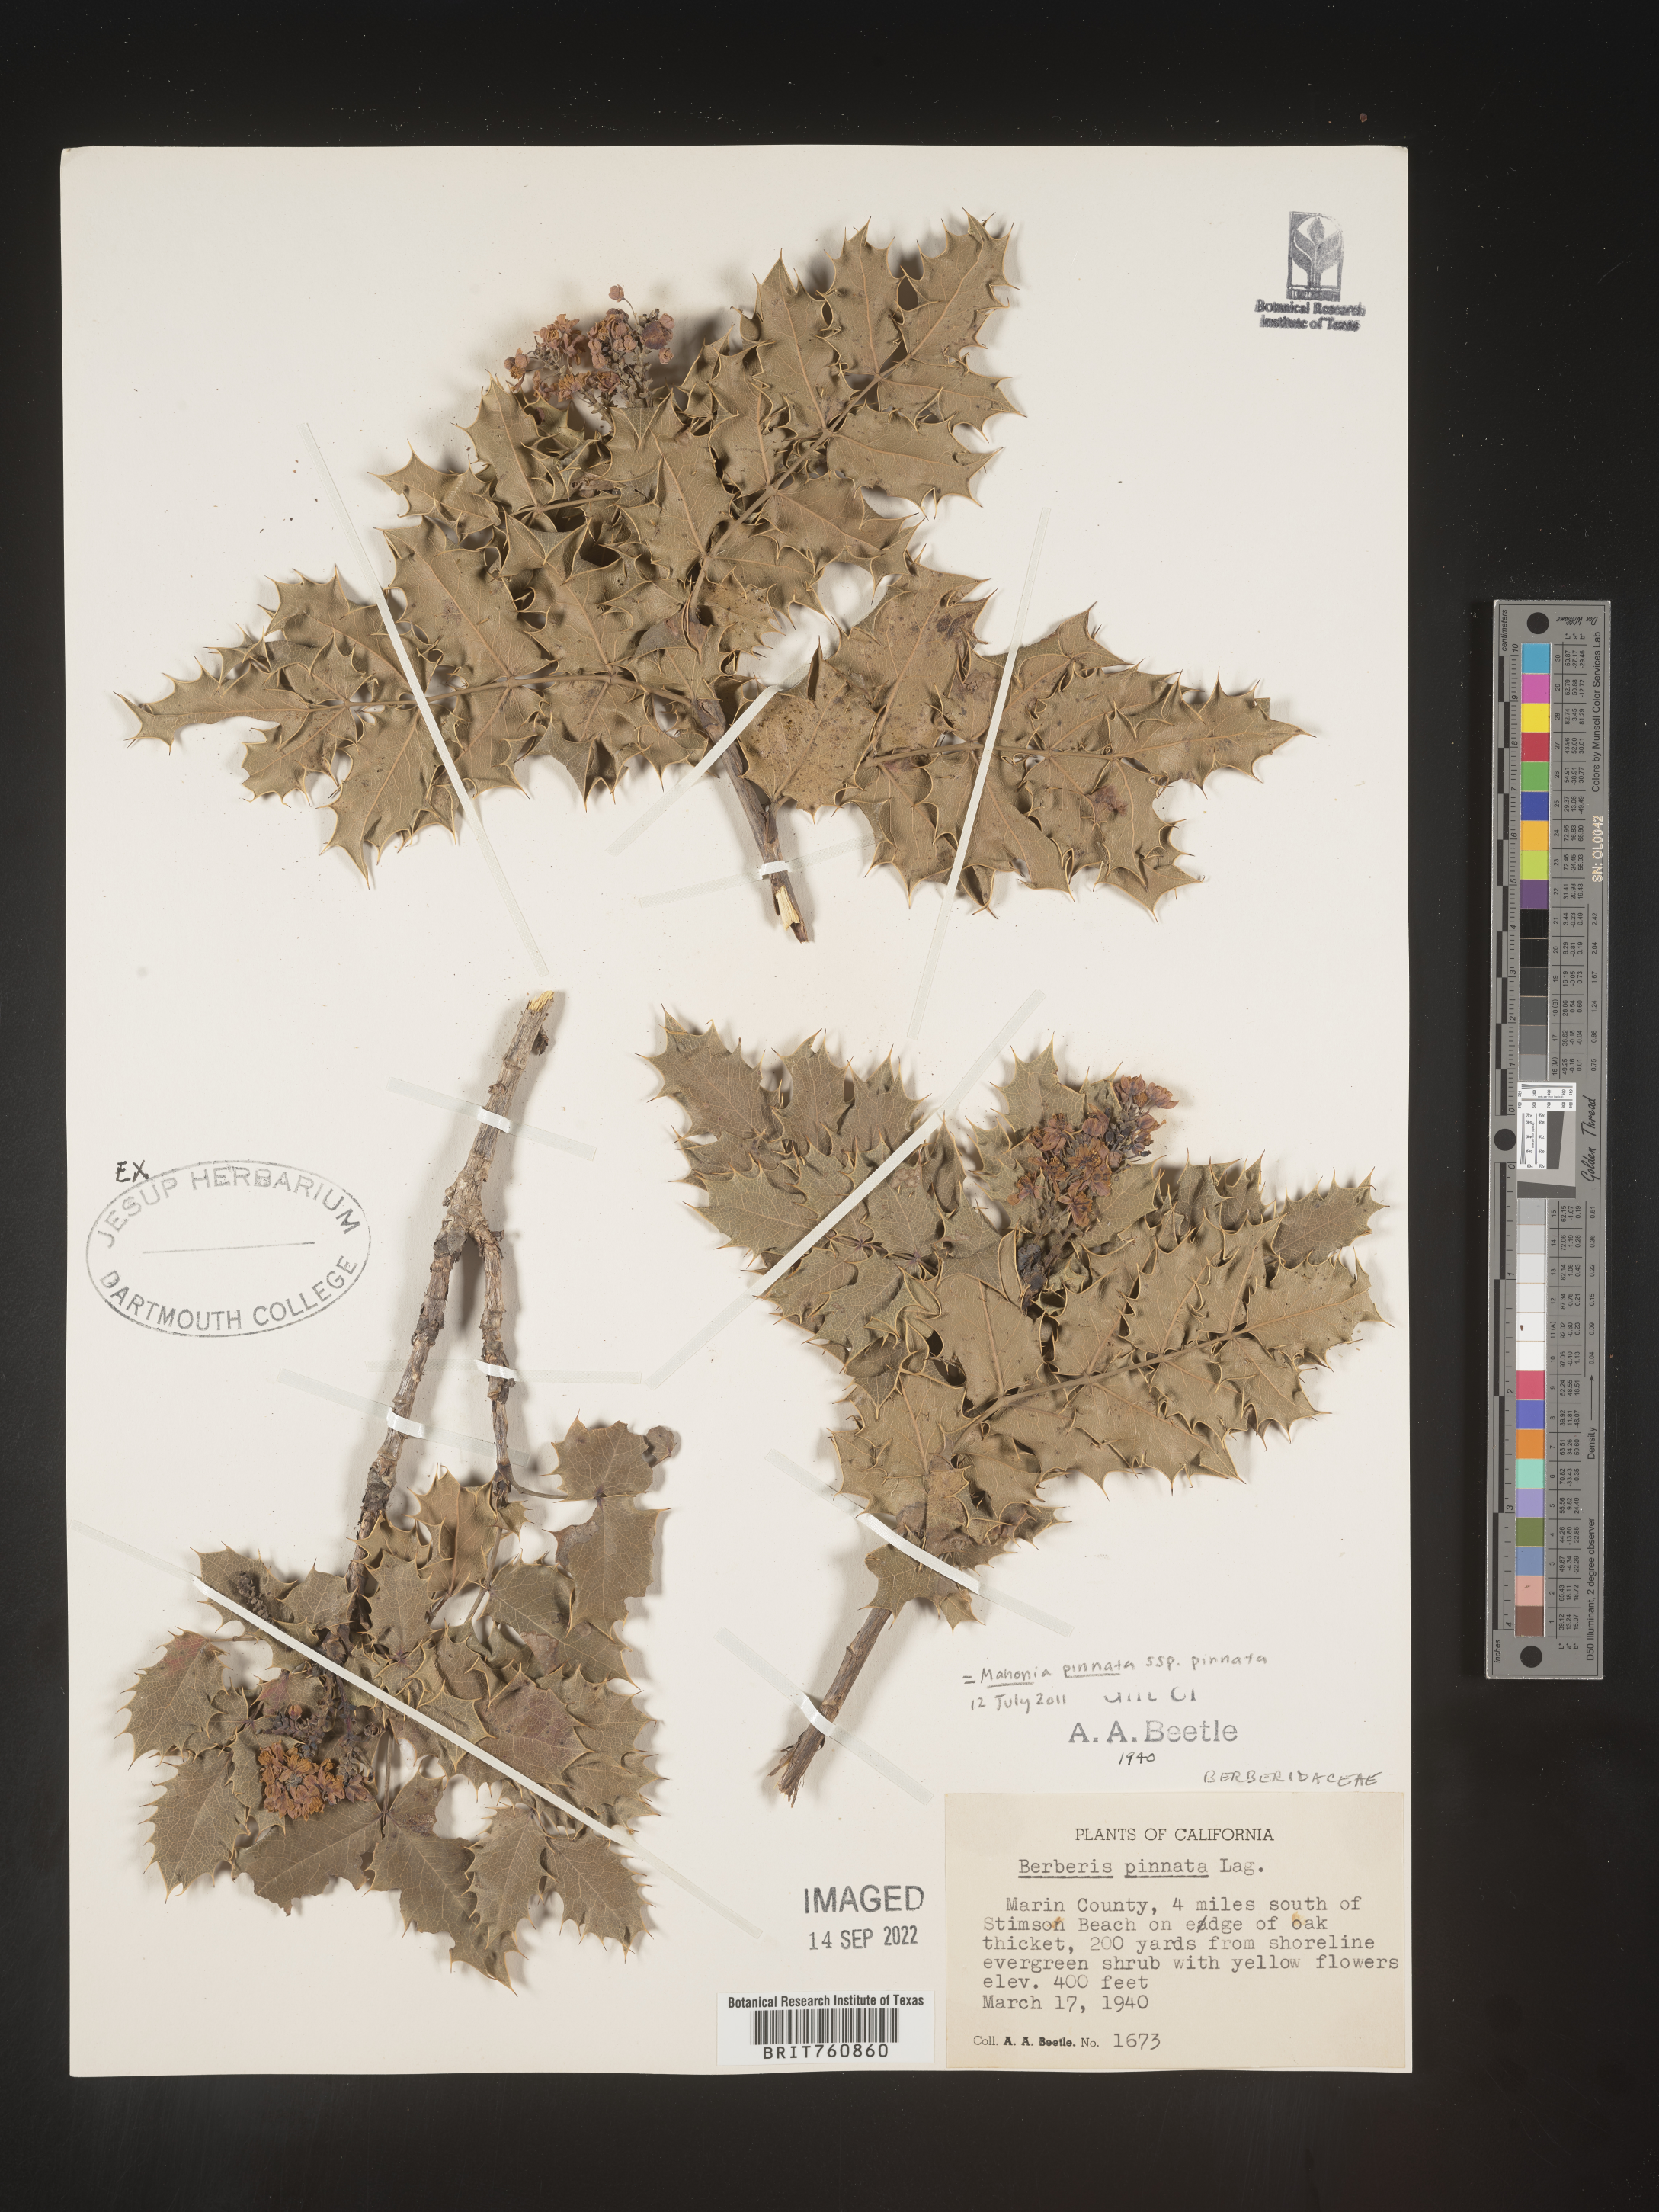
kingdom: Plantae
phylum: Tracheophyta
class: Magnoliopsida
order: Ranunculales
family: Berberidaceae
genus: Mahonia
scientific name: Mahonia
